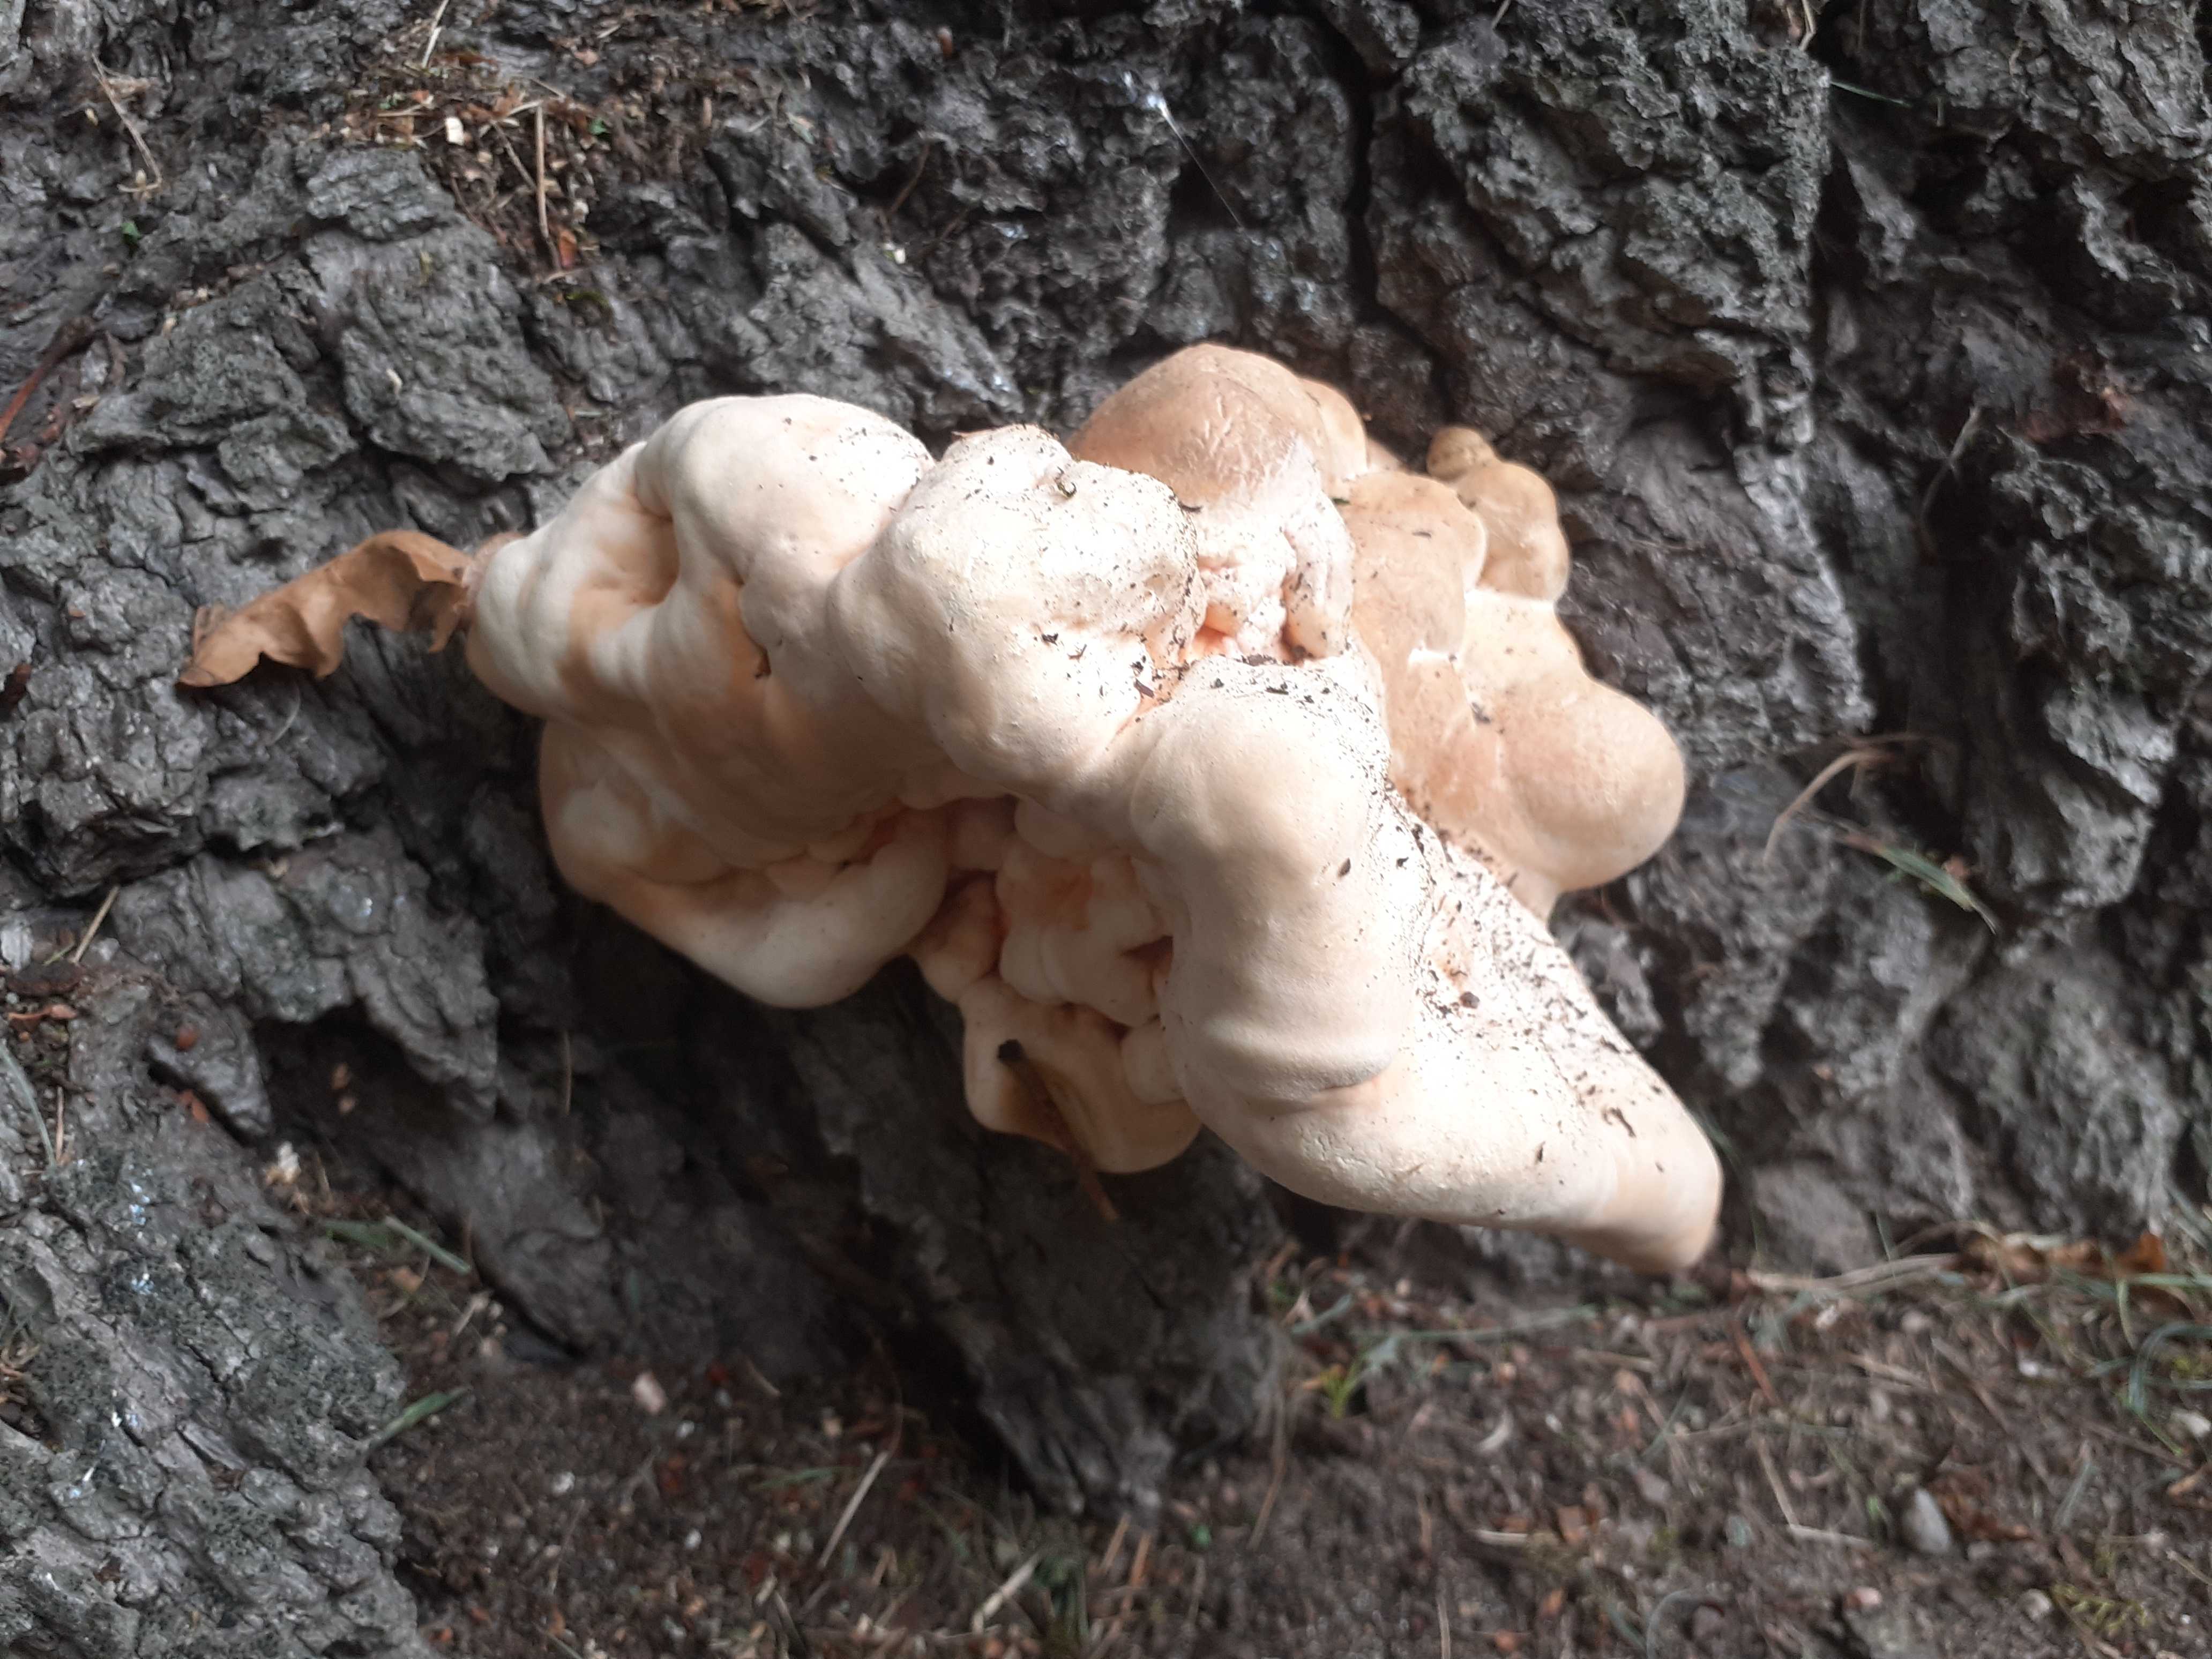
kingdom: Fungi
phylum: Basidiomycota
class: Agaricomycetes
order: Polyporales
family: Laetiporaceae
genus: Laetiporus
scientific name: Laetiporus sulphureus
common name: svovlporesvamp
